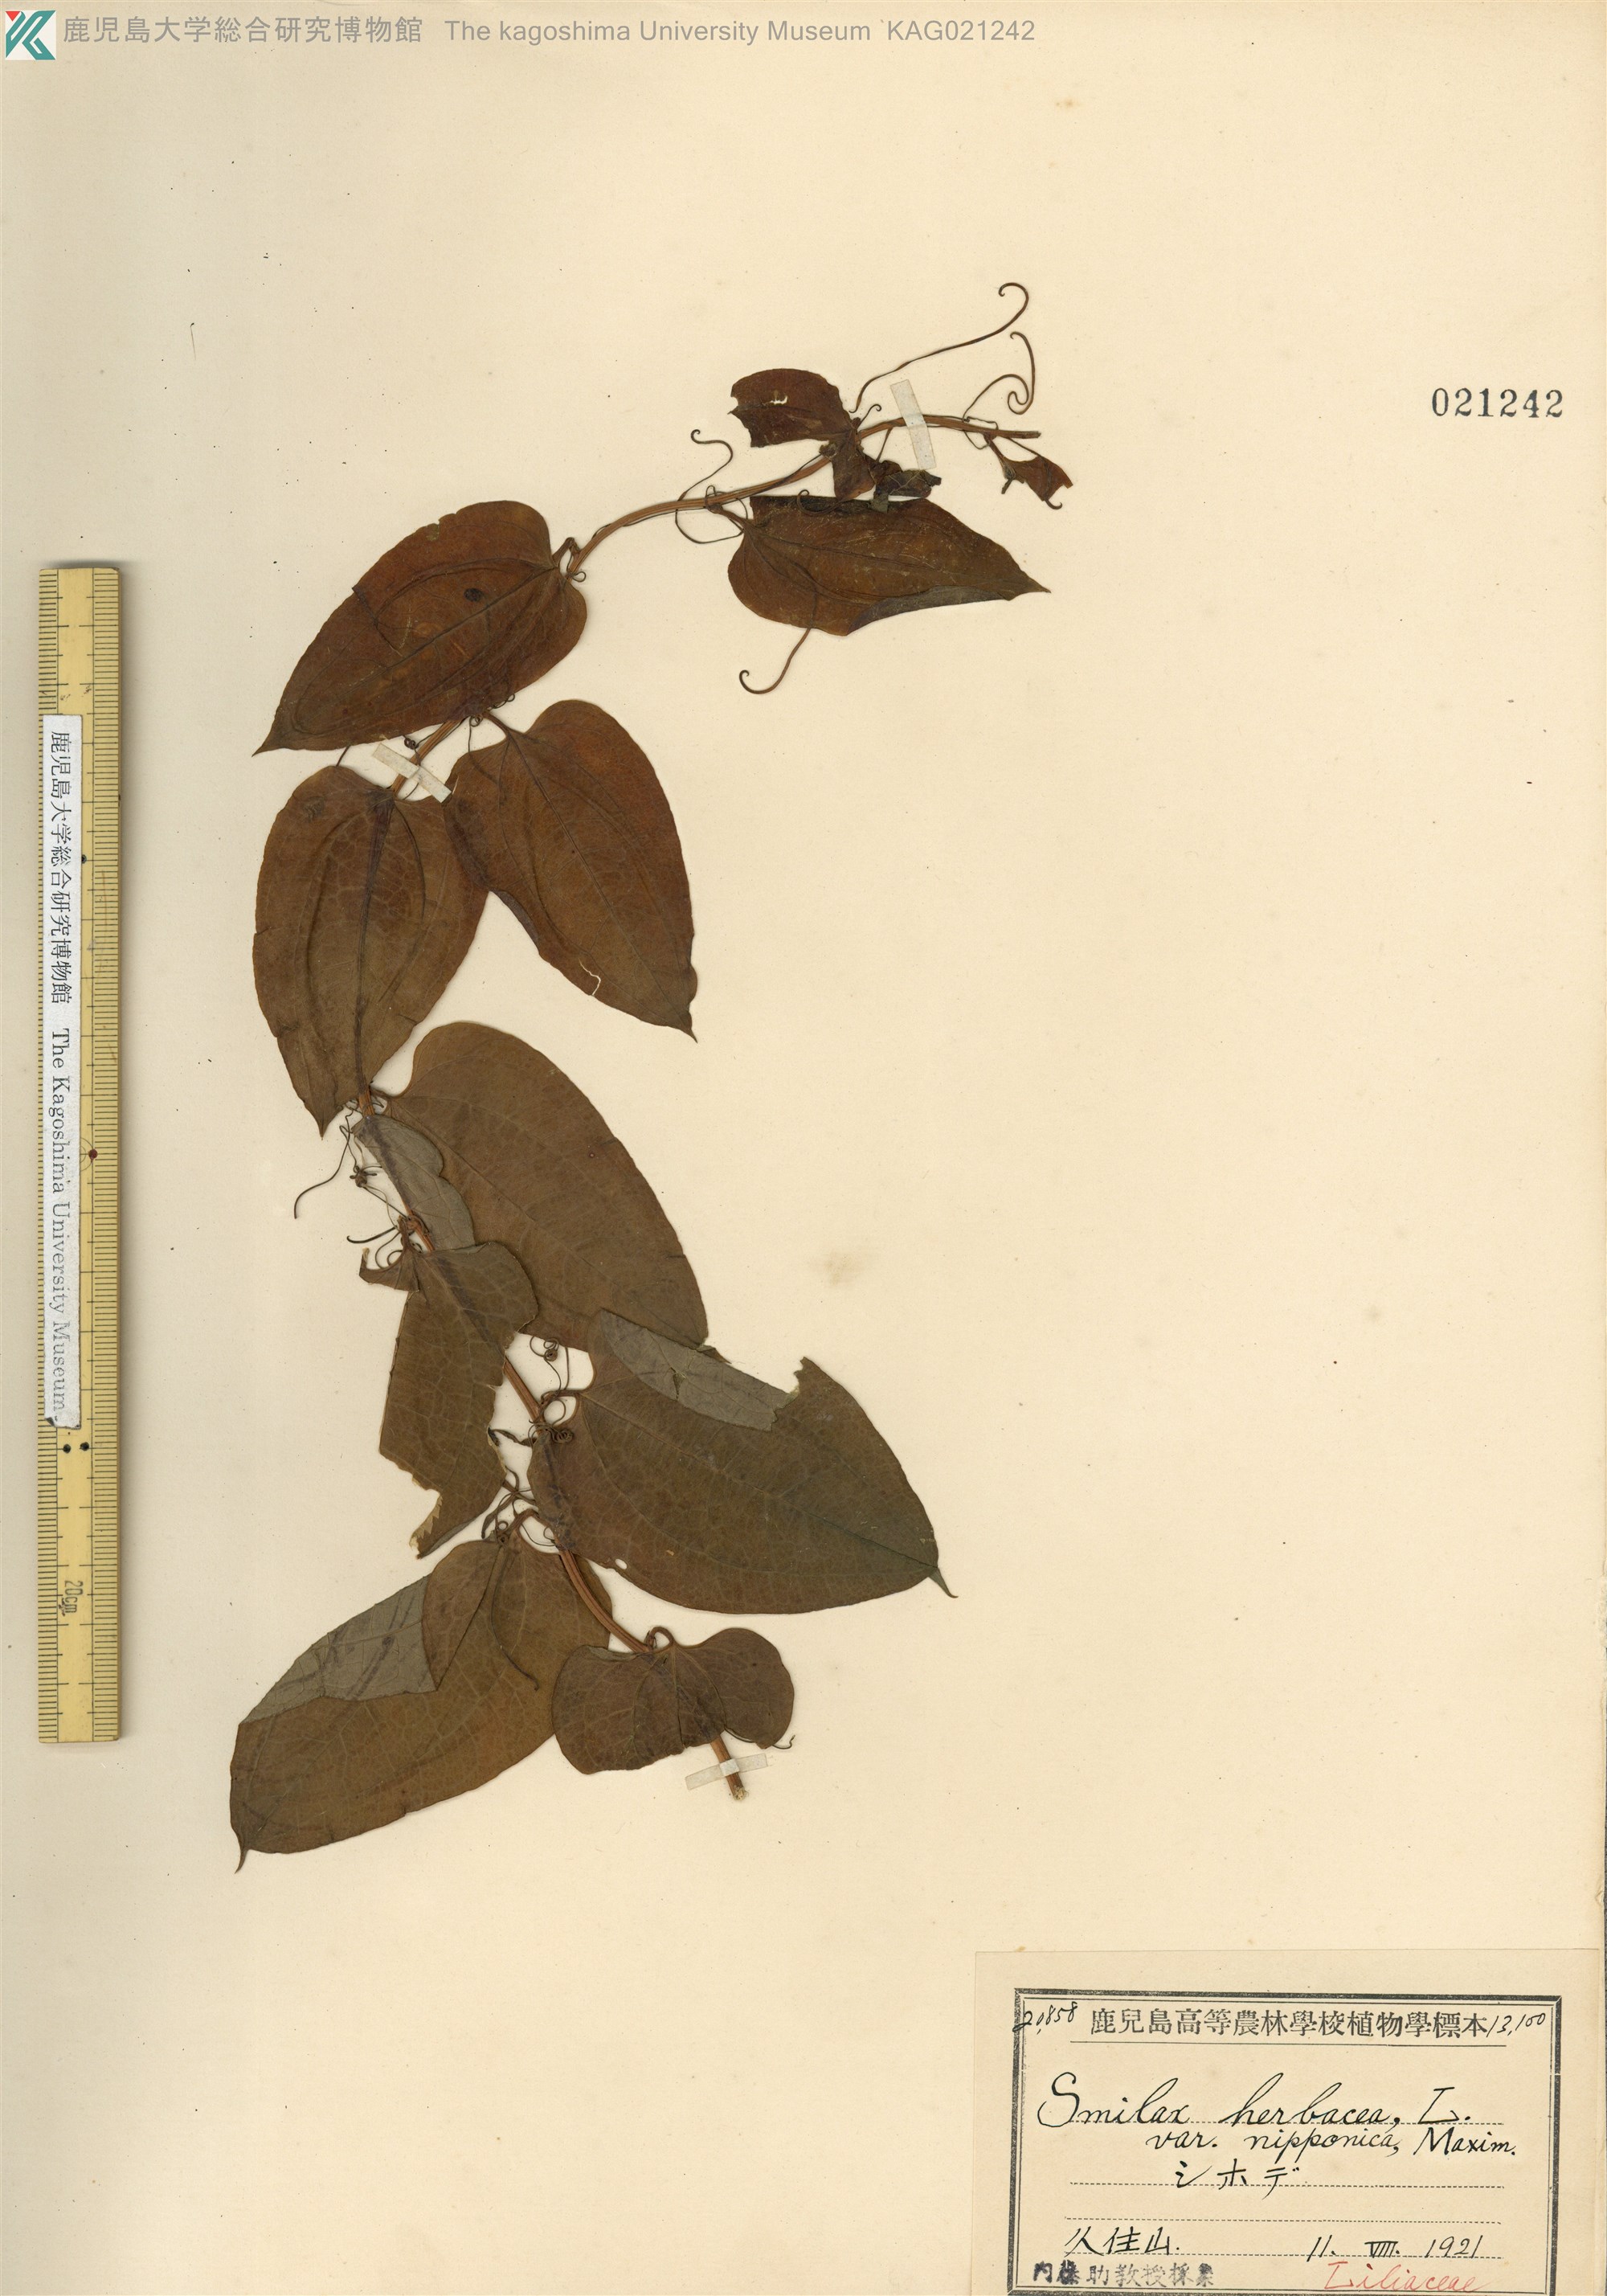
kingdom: Plantae
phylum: Tracheophyta
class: Liliopsida
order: Liliales
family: Smilacaceae
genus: Smilax
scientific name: Smilax riparia
